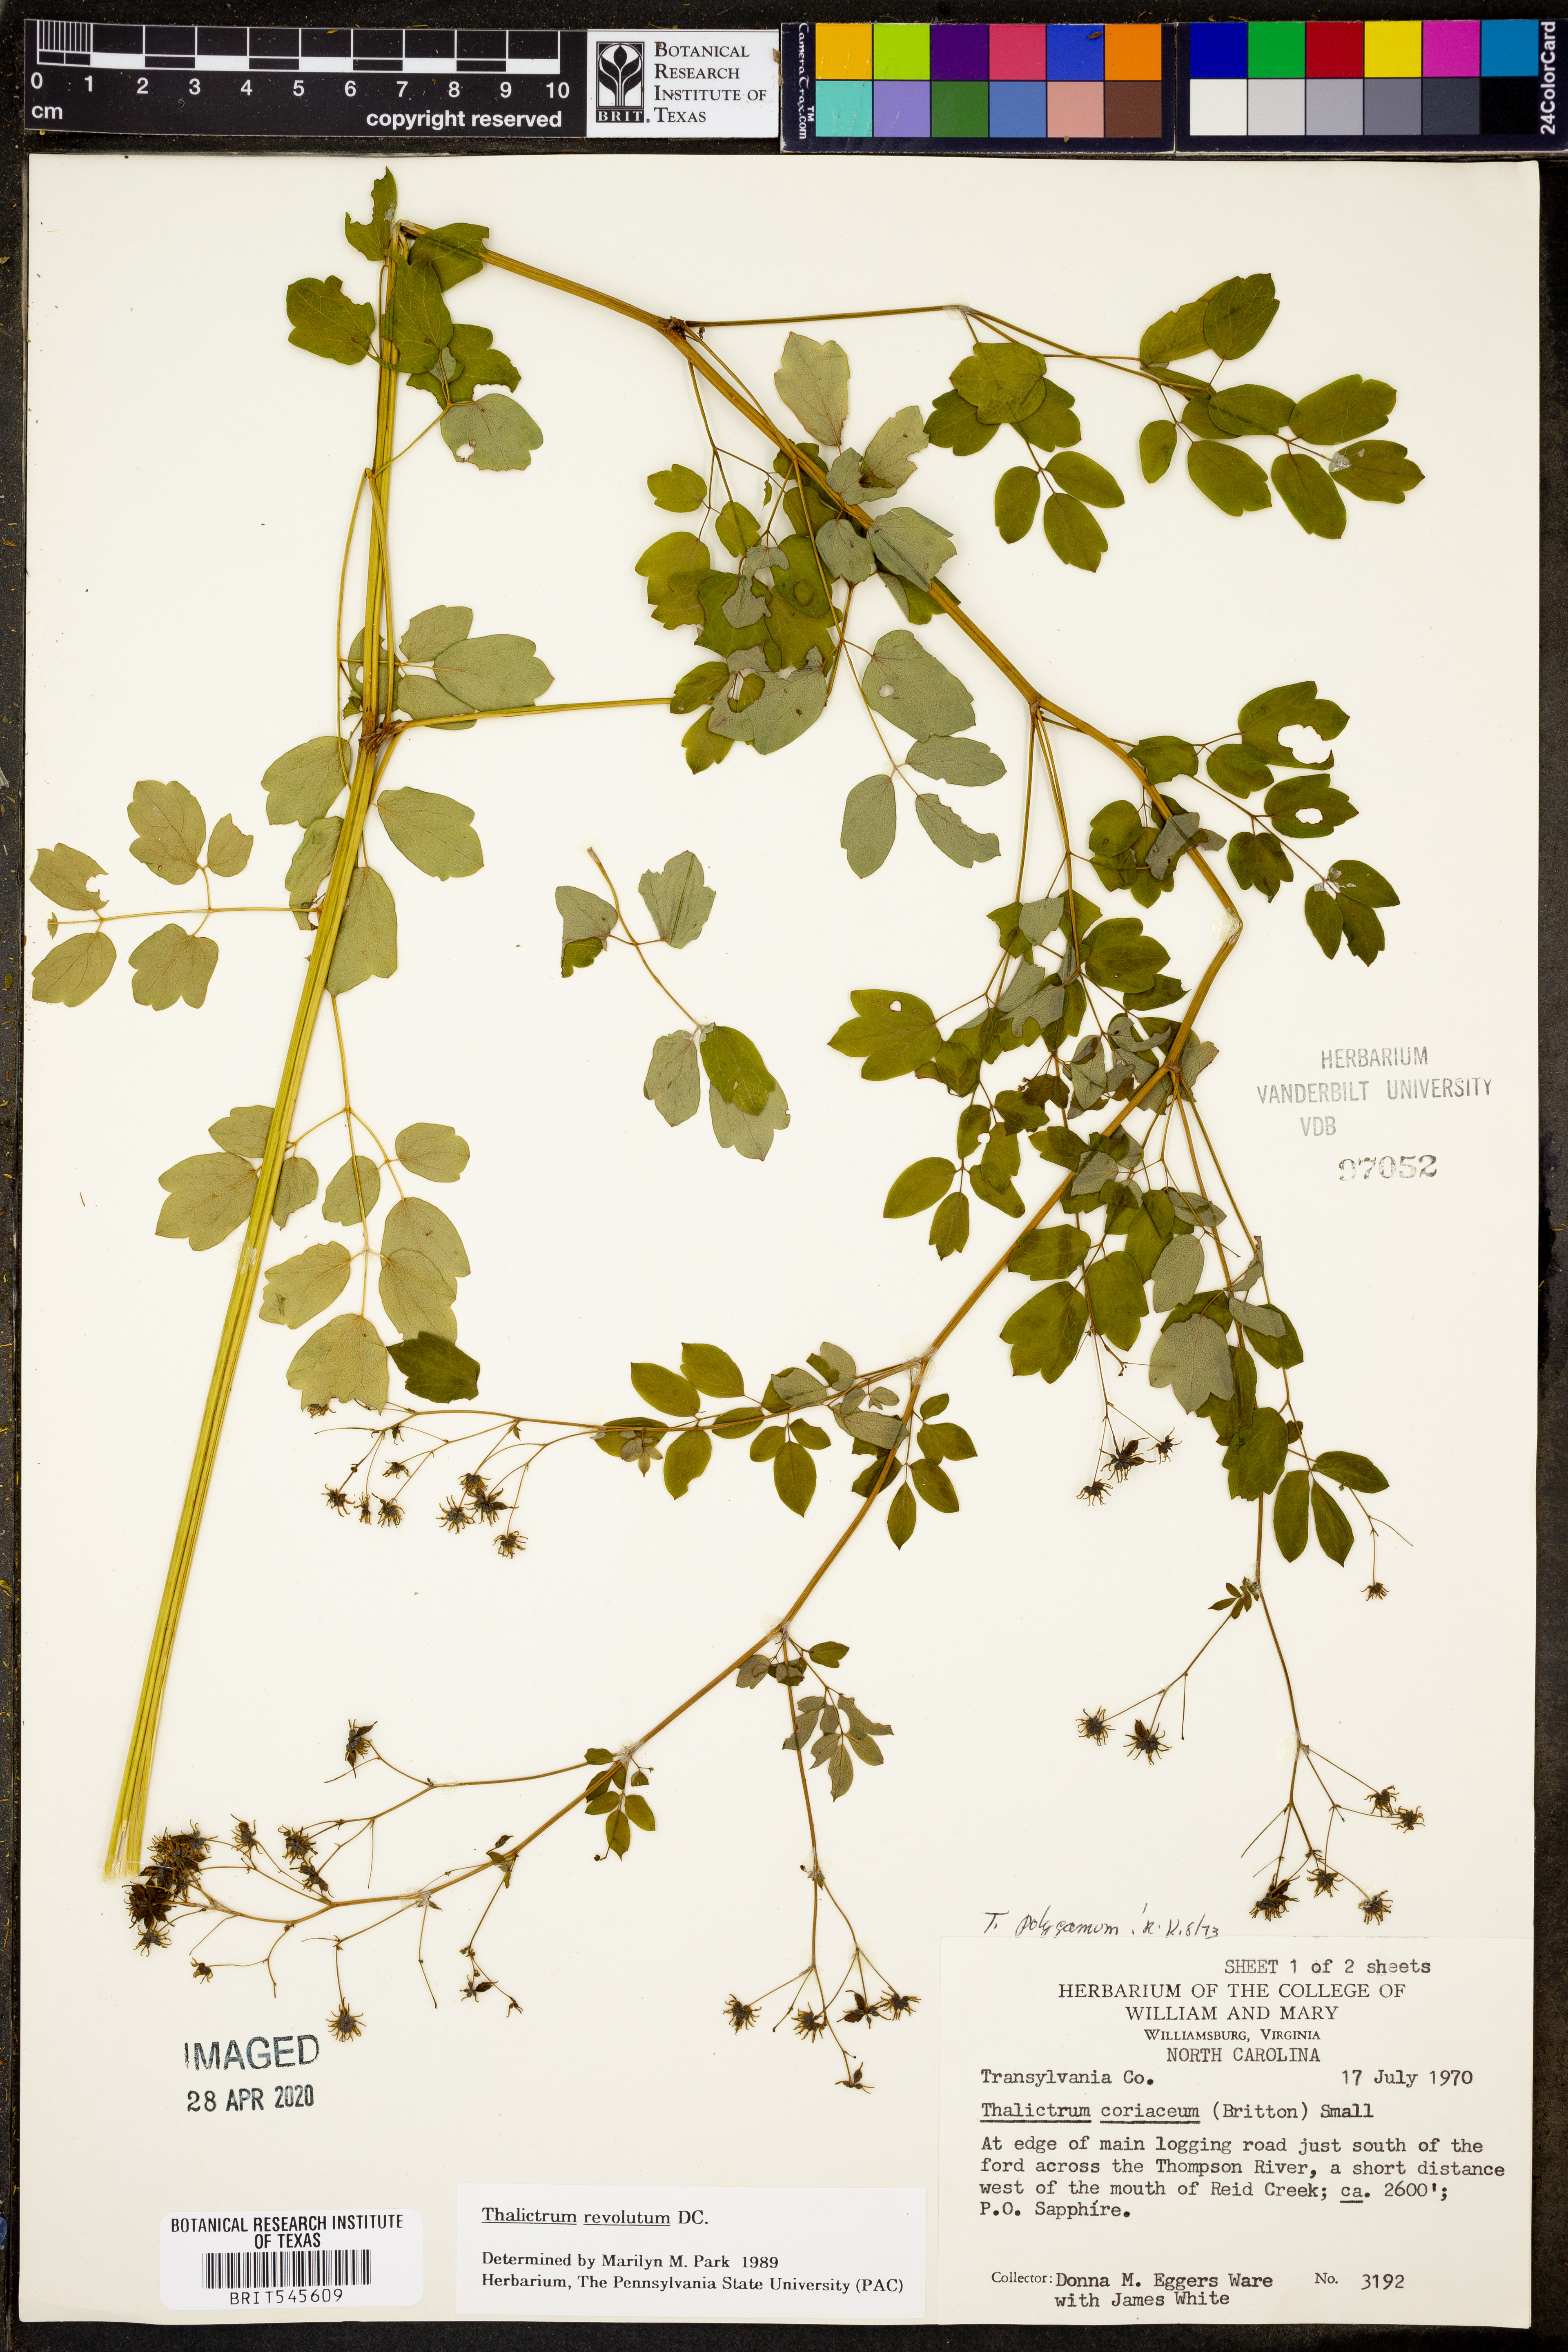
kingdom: Plantae
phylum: Tracheophyta
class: Magnoliopsida
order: Ranunculales
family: Ranunculaceae
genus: Thalictrum
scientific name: Thalictrum revolutum
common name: Waxy meadow-rue
